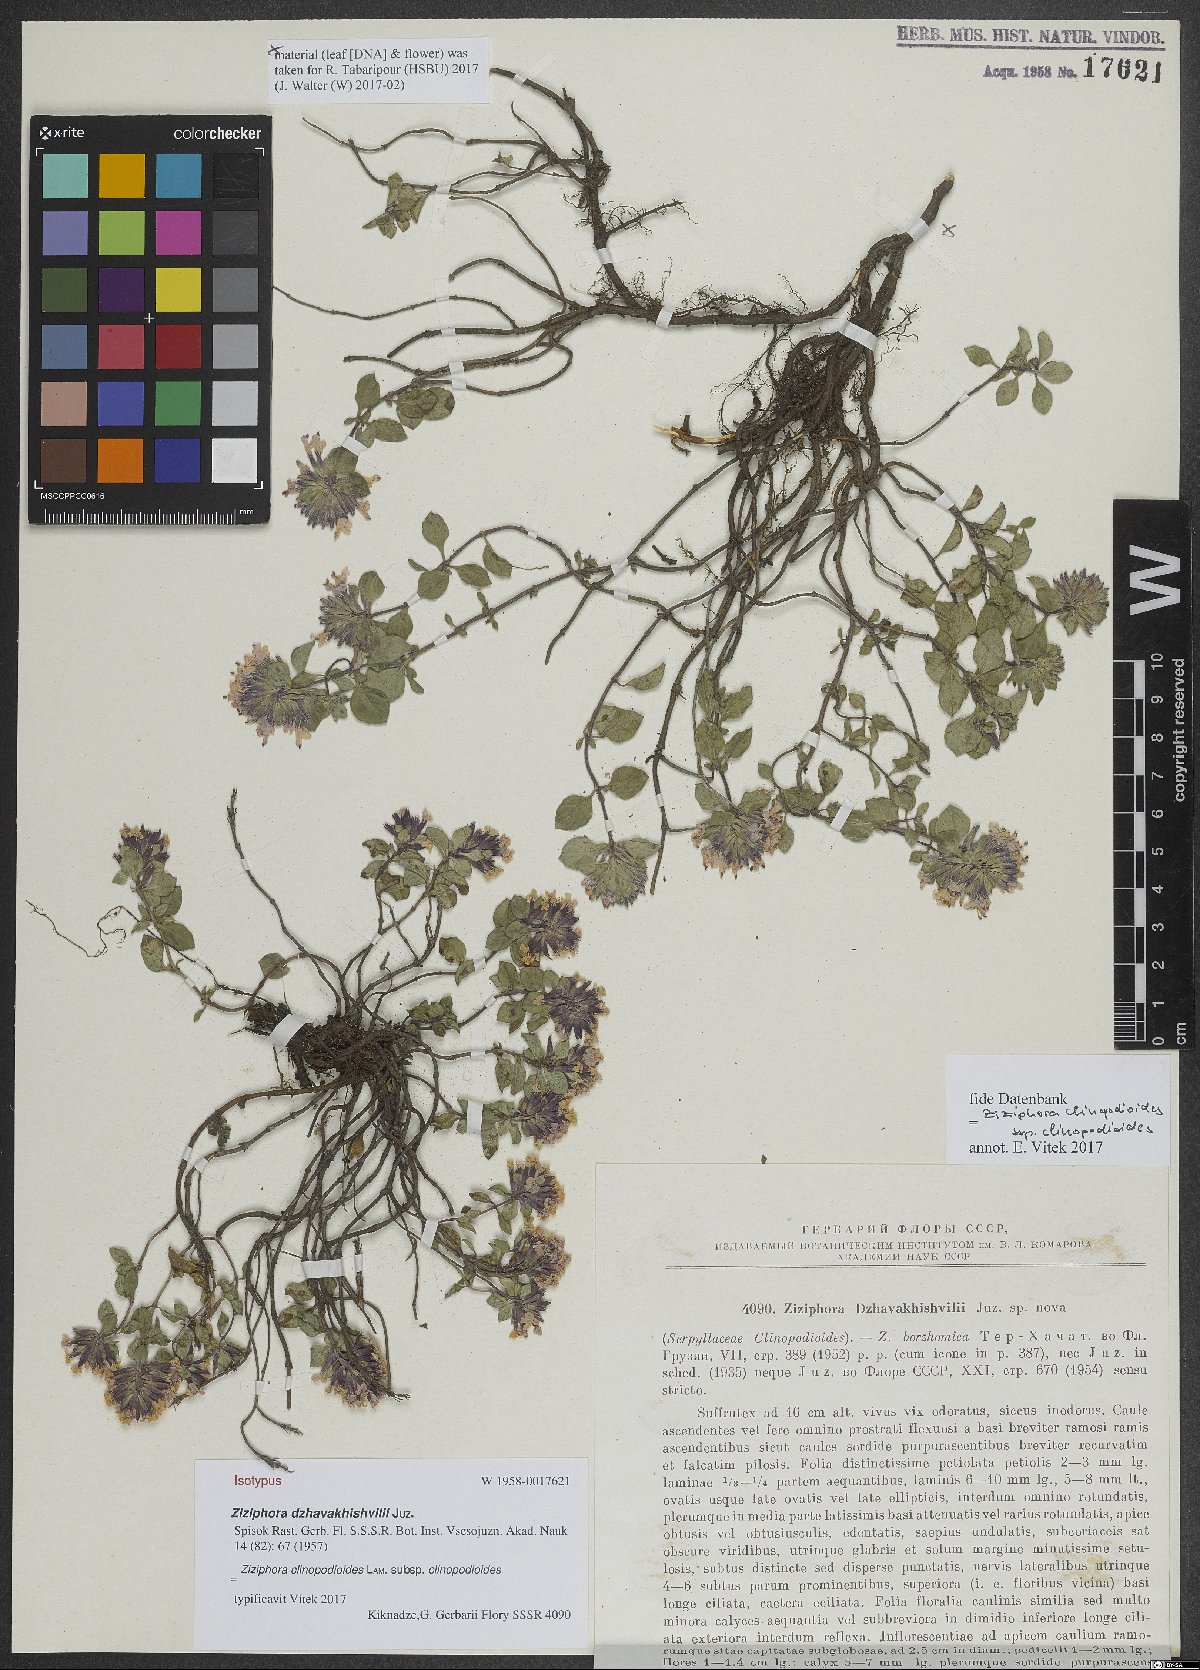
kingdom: Plantae
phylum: Tracheophyta
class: Magnoliopsida
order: Lamiales
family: Lamiaceae
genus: Ziziphora
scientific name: Ziziphora clinopodioides
